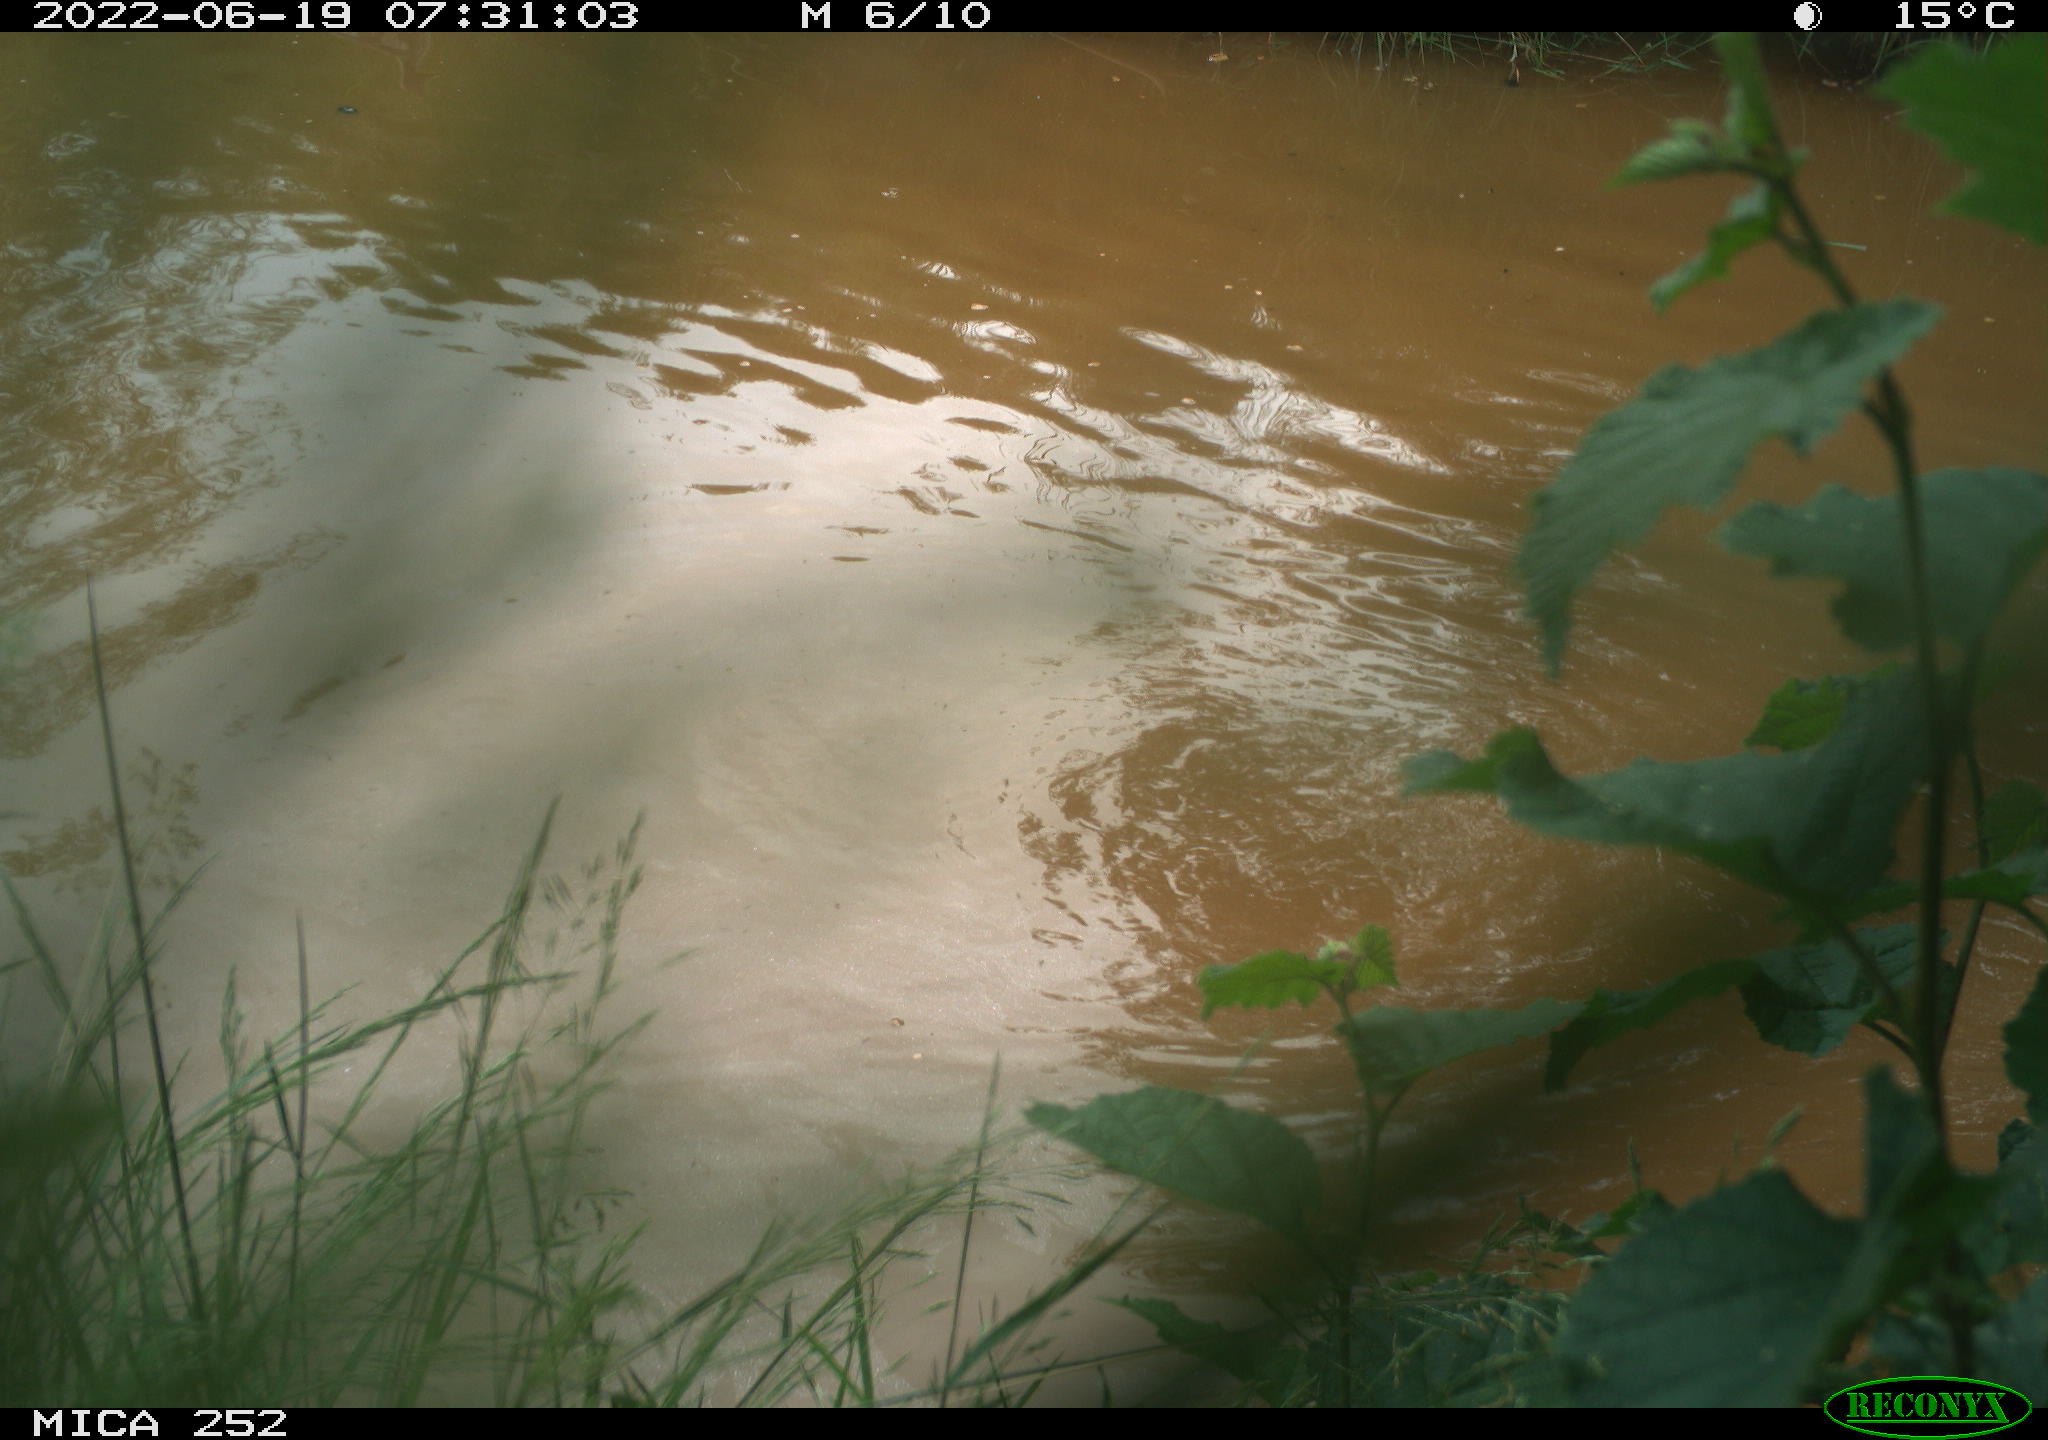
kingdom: Animalia
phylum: Chordata
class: Aves
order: Gruiformes
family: Rallidae
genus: Gallinula
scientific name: Gallinula chloropus
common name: Common moorhen
